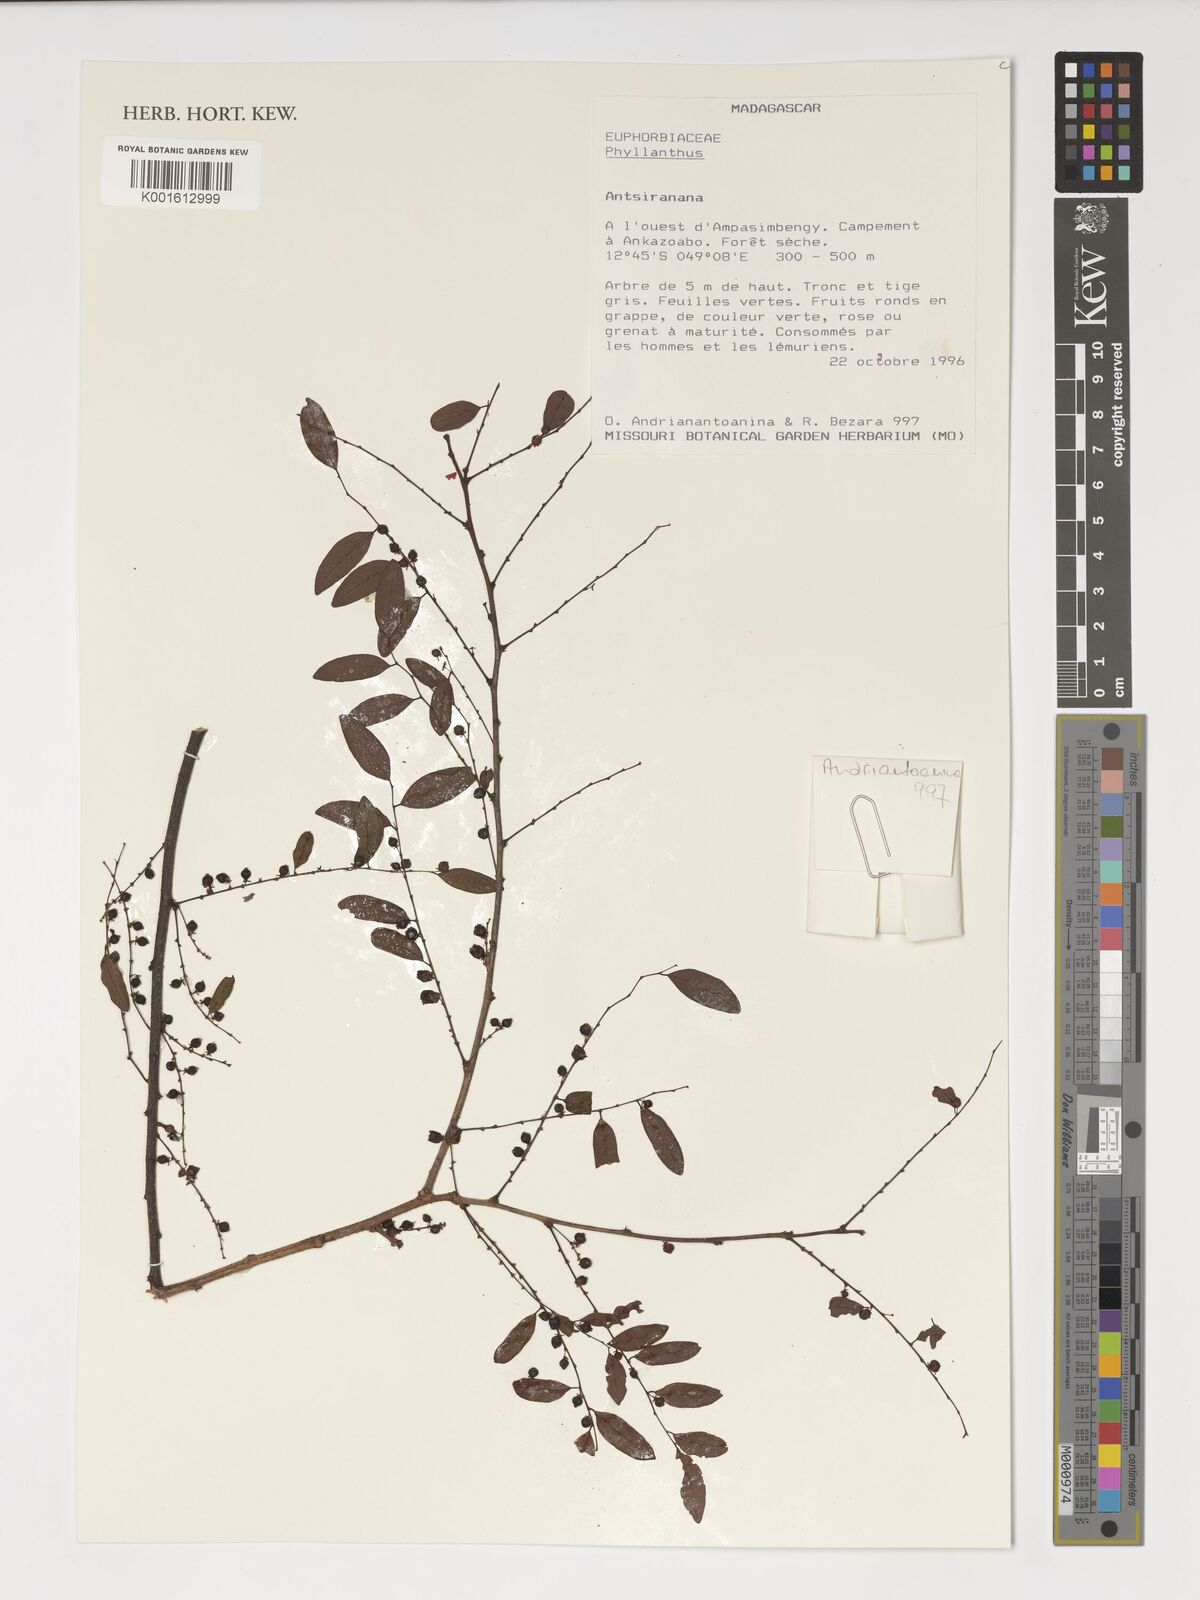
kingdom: Plantae
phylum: Tracheophyta
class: Magnoliopsida
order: Malpighiales
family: Phyllanthaceae
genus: Phyllanthus
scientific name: Phyllanthus
